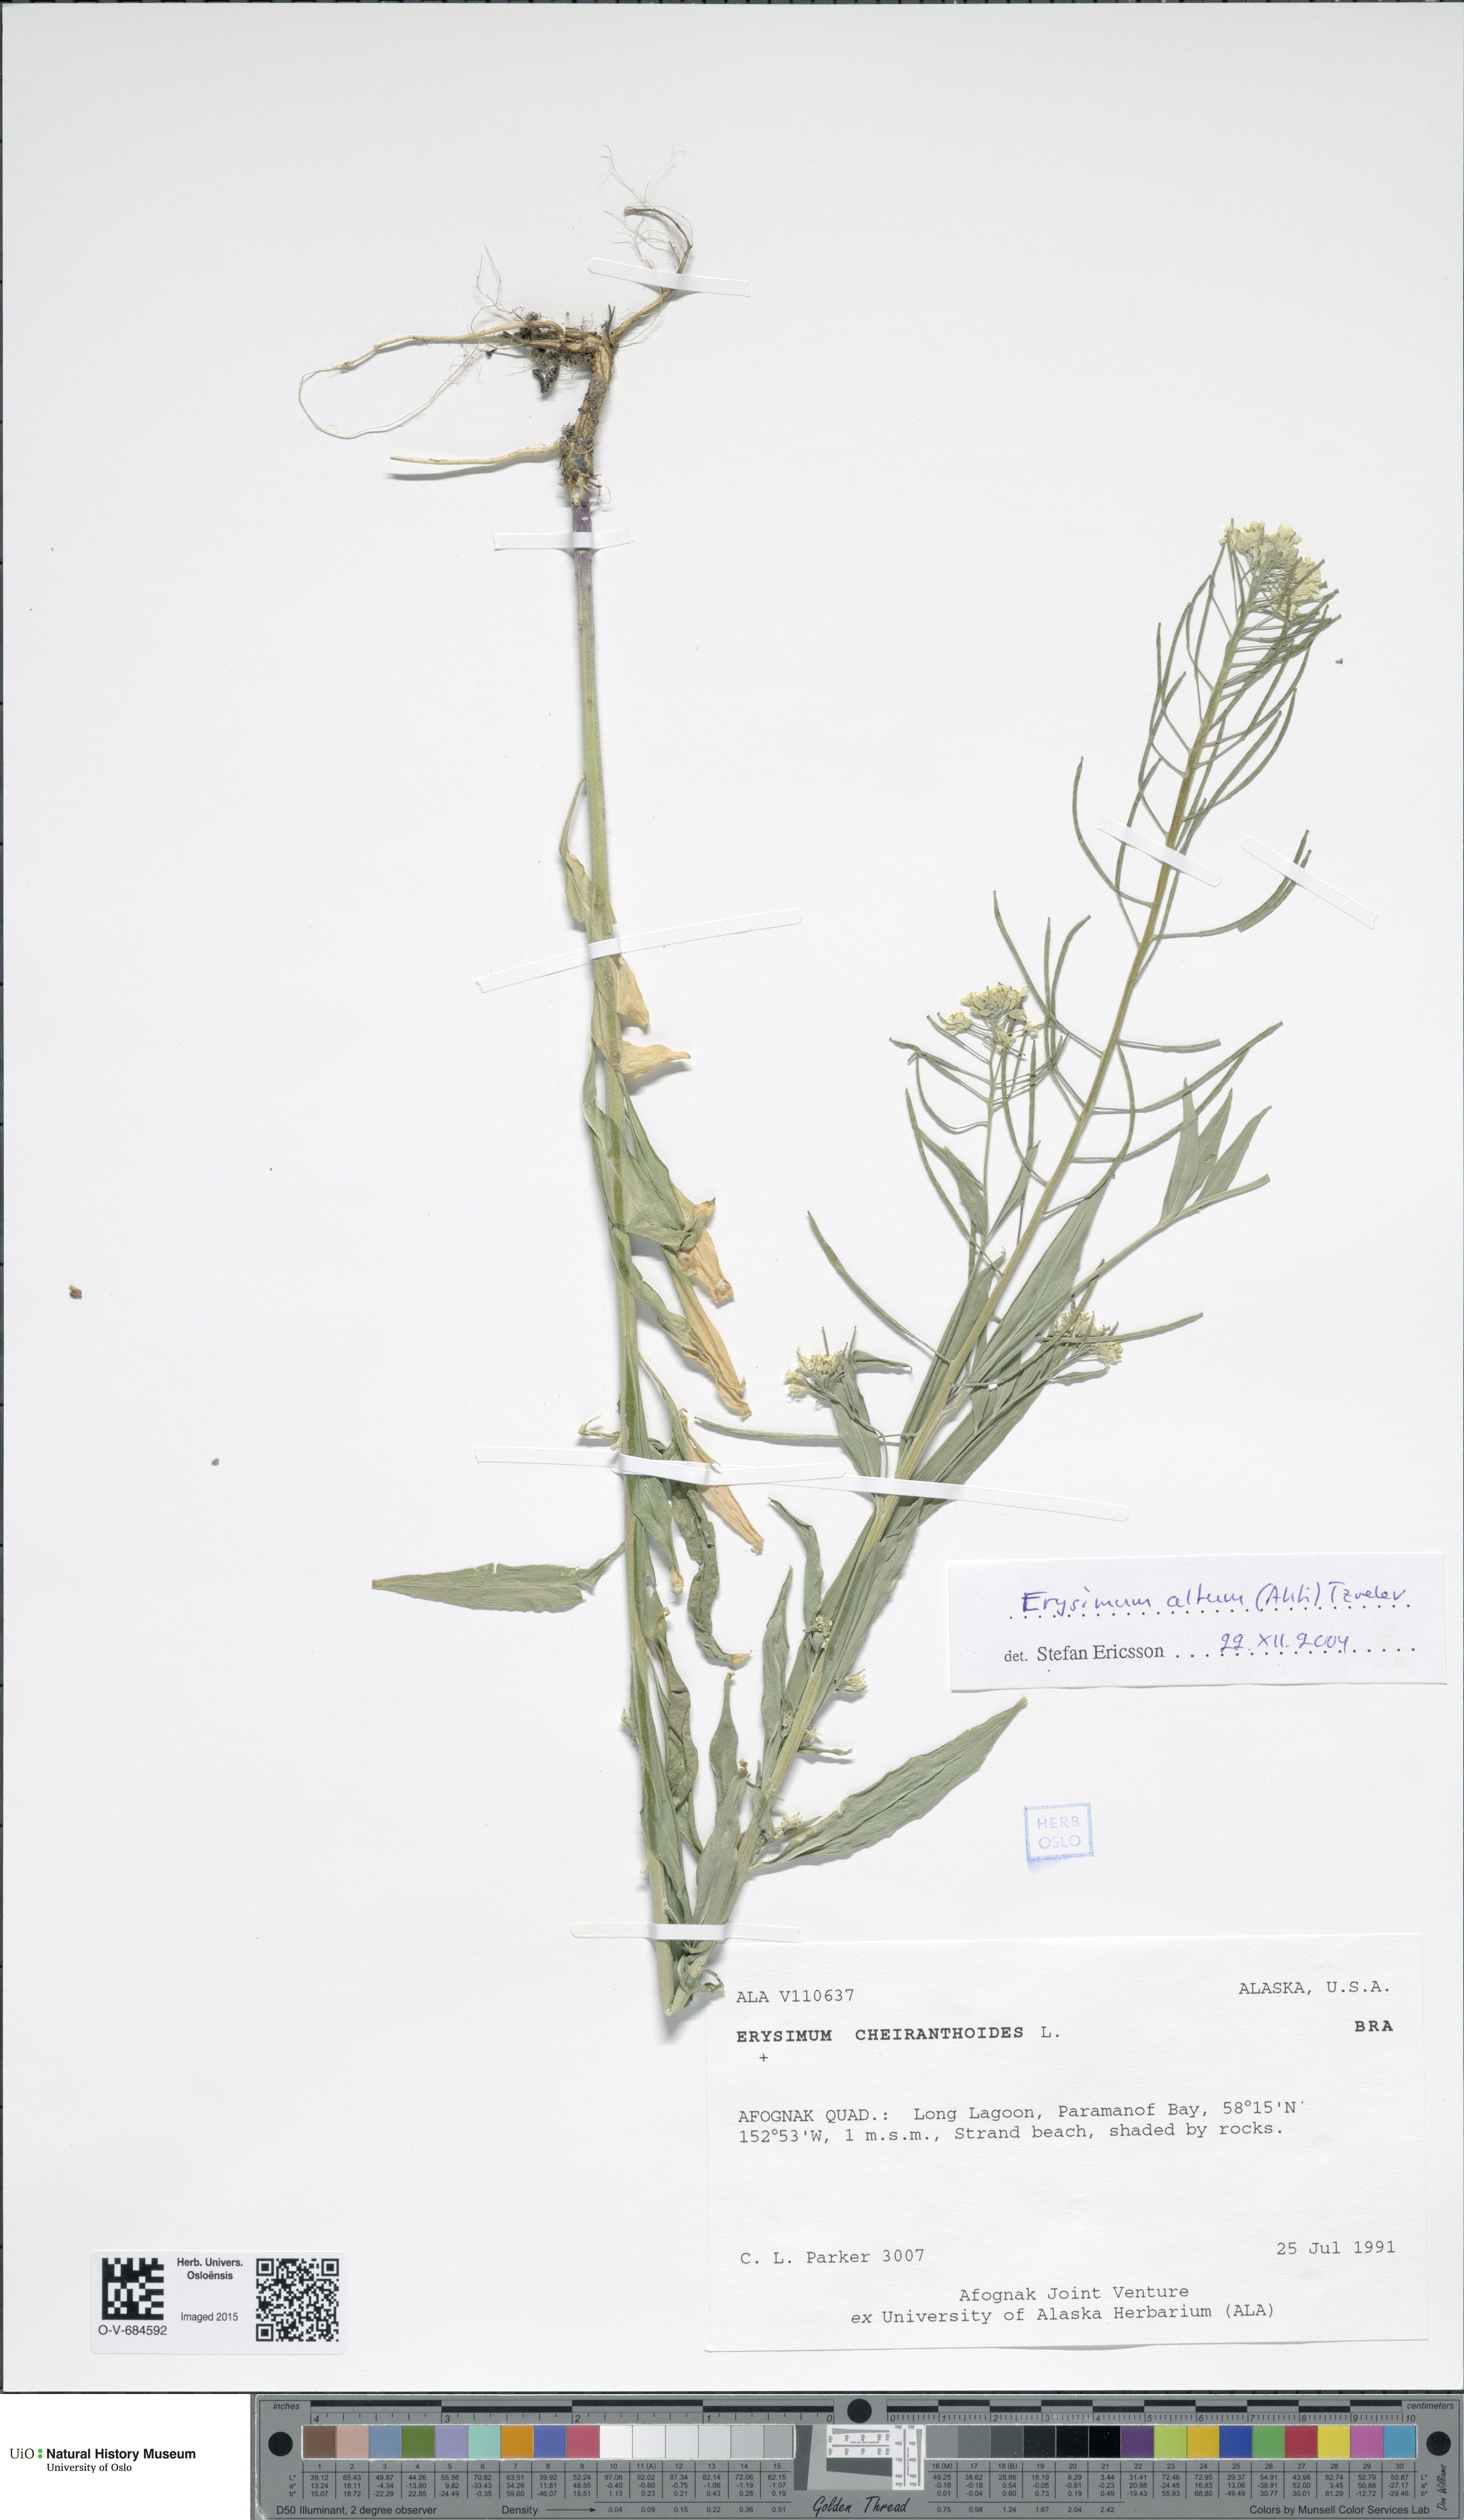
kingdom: Plantae
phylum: Tracheophyta
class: Magnoliopsida
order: Brassicales
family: Brassicaceae
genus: Erysimum
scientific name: Erysimum cheiranthoides
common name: Treacle mustard
